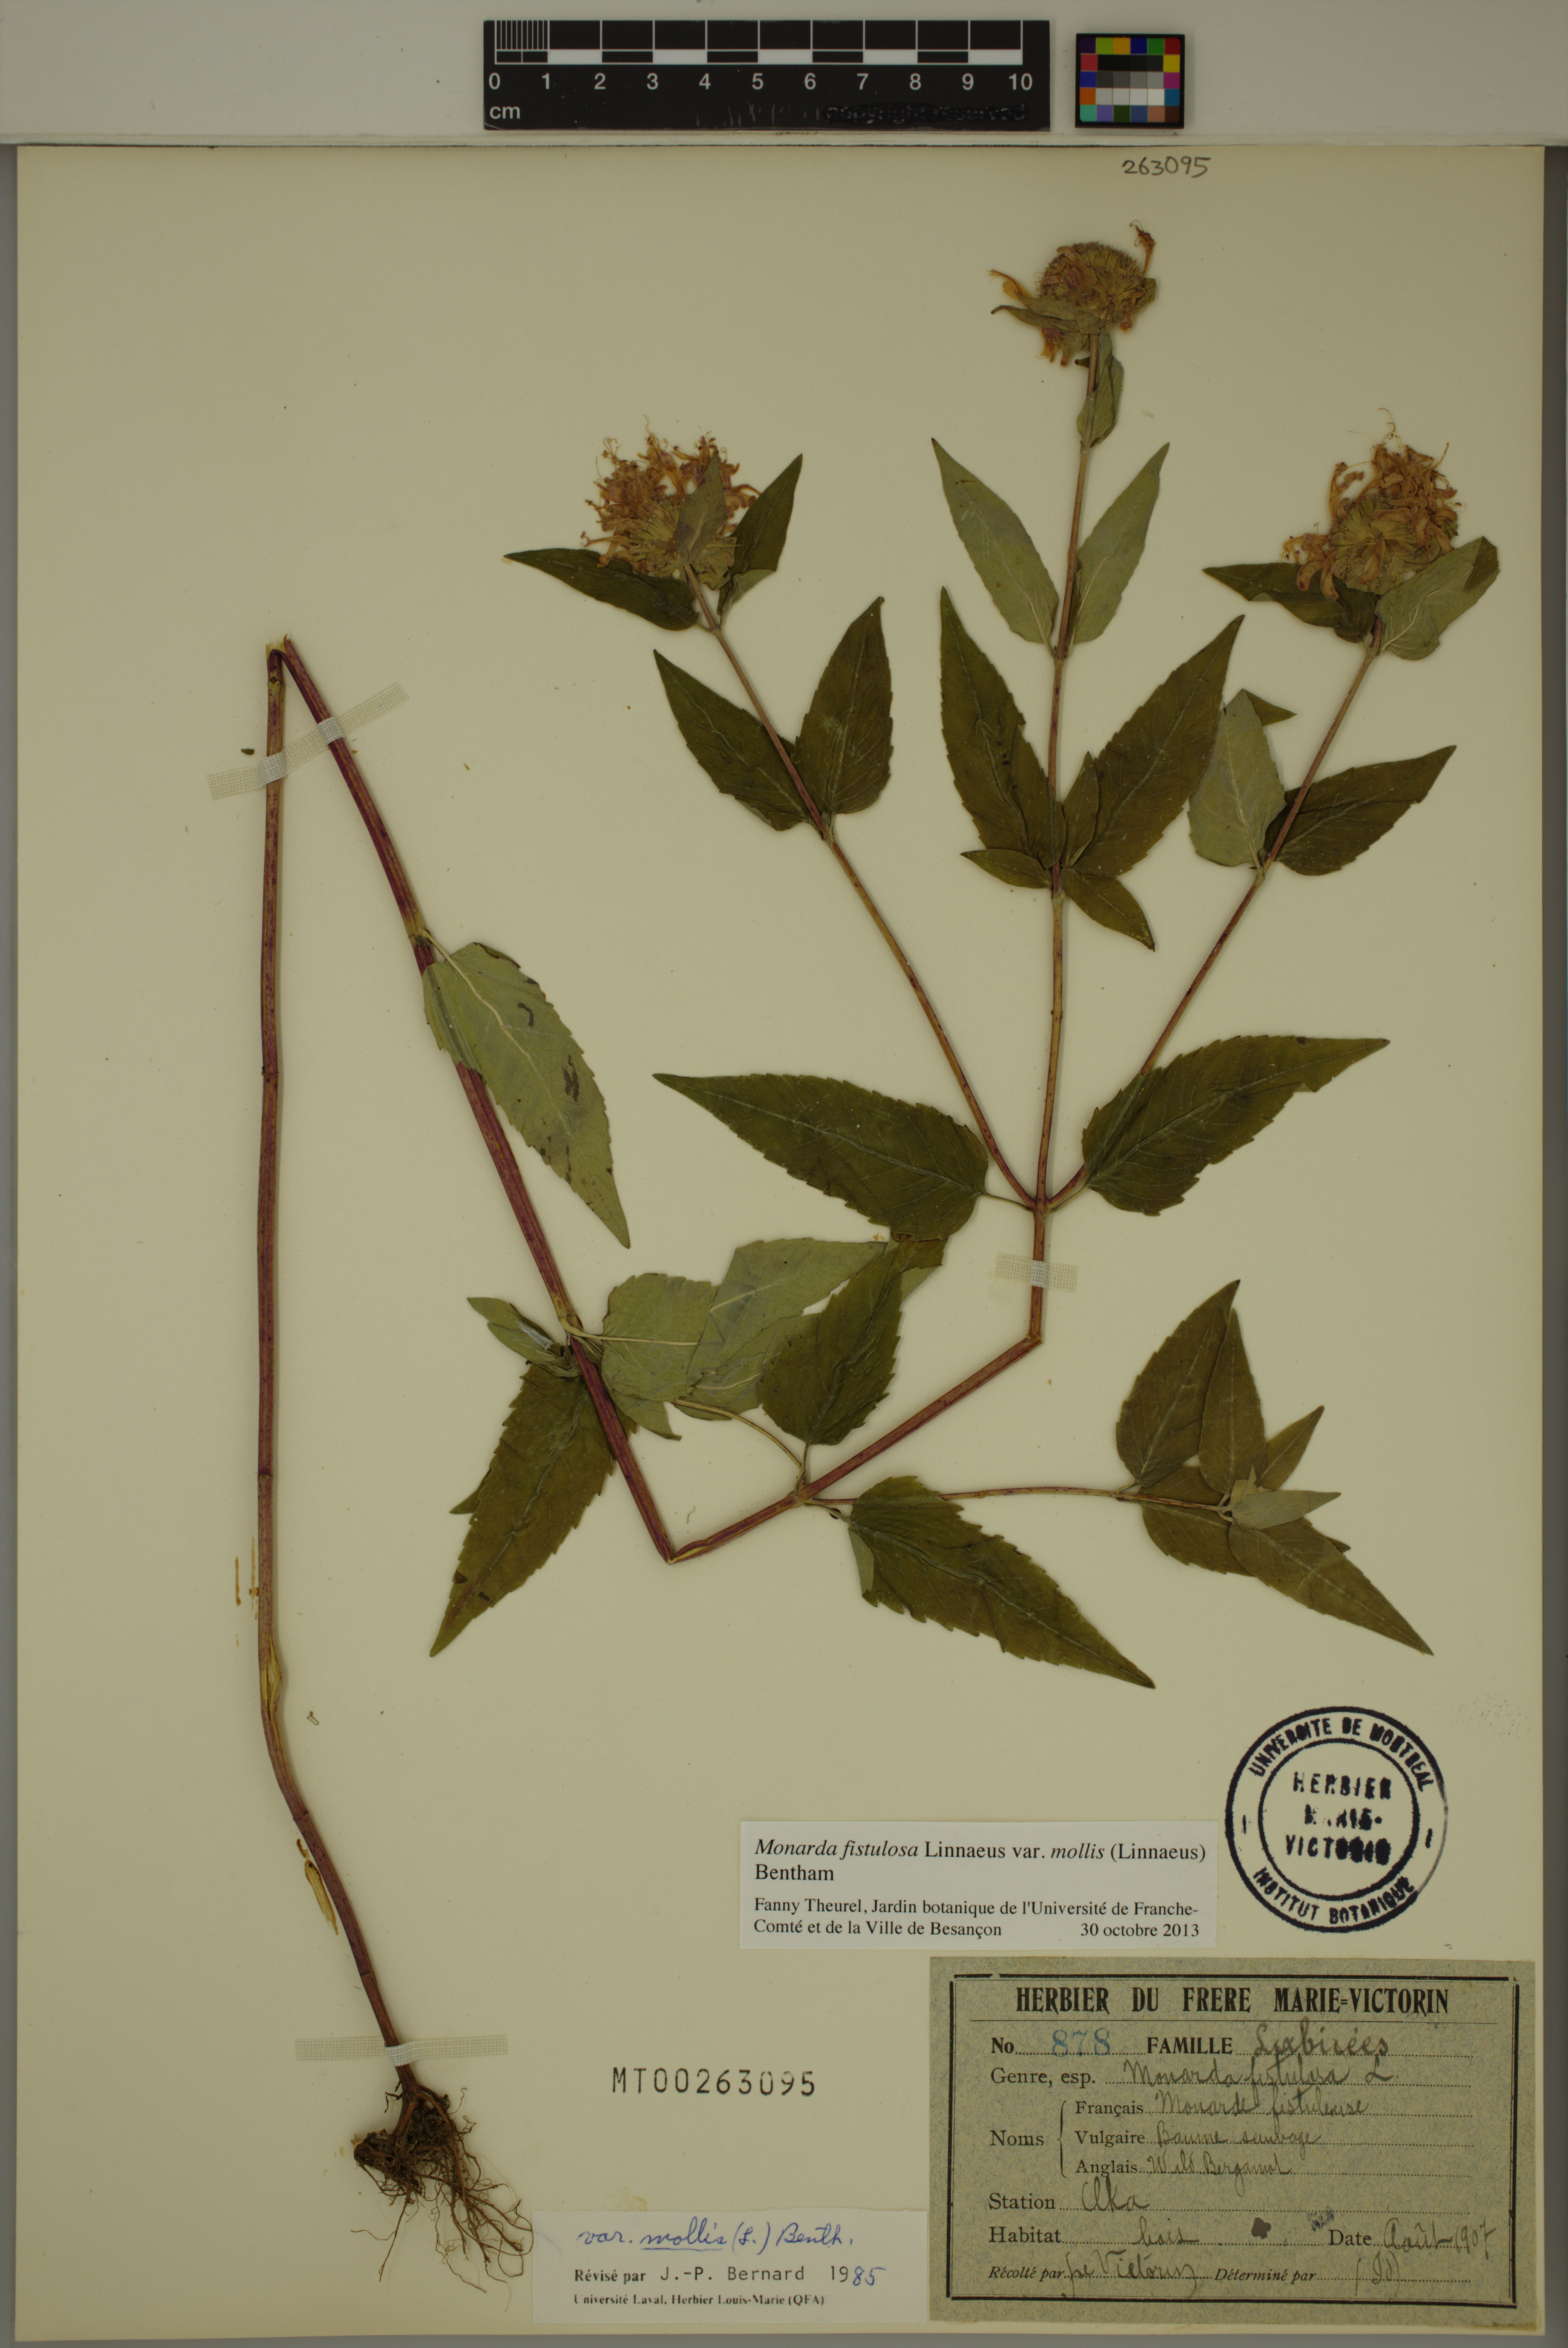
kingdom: Plantae
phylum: Tracheophyta
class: Magnoliopsida
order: Lamiales
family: Lamiaceae
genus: Monarda
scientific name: Monarda fistulosa
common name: Purple beebalm
